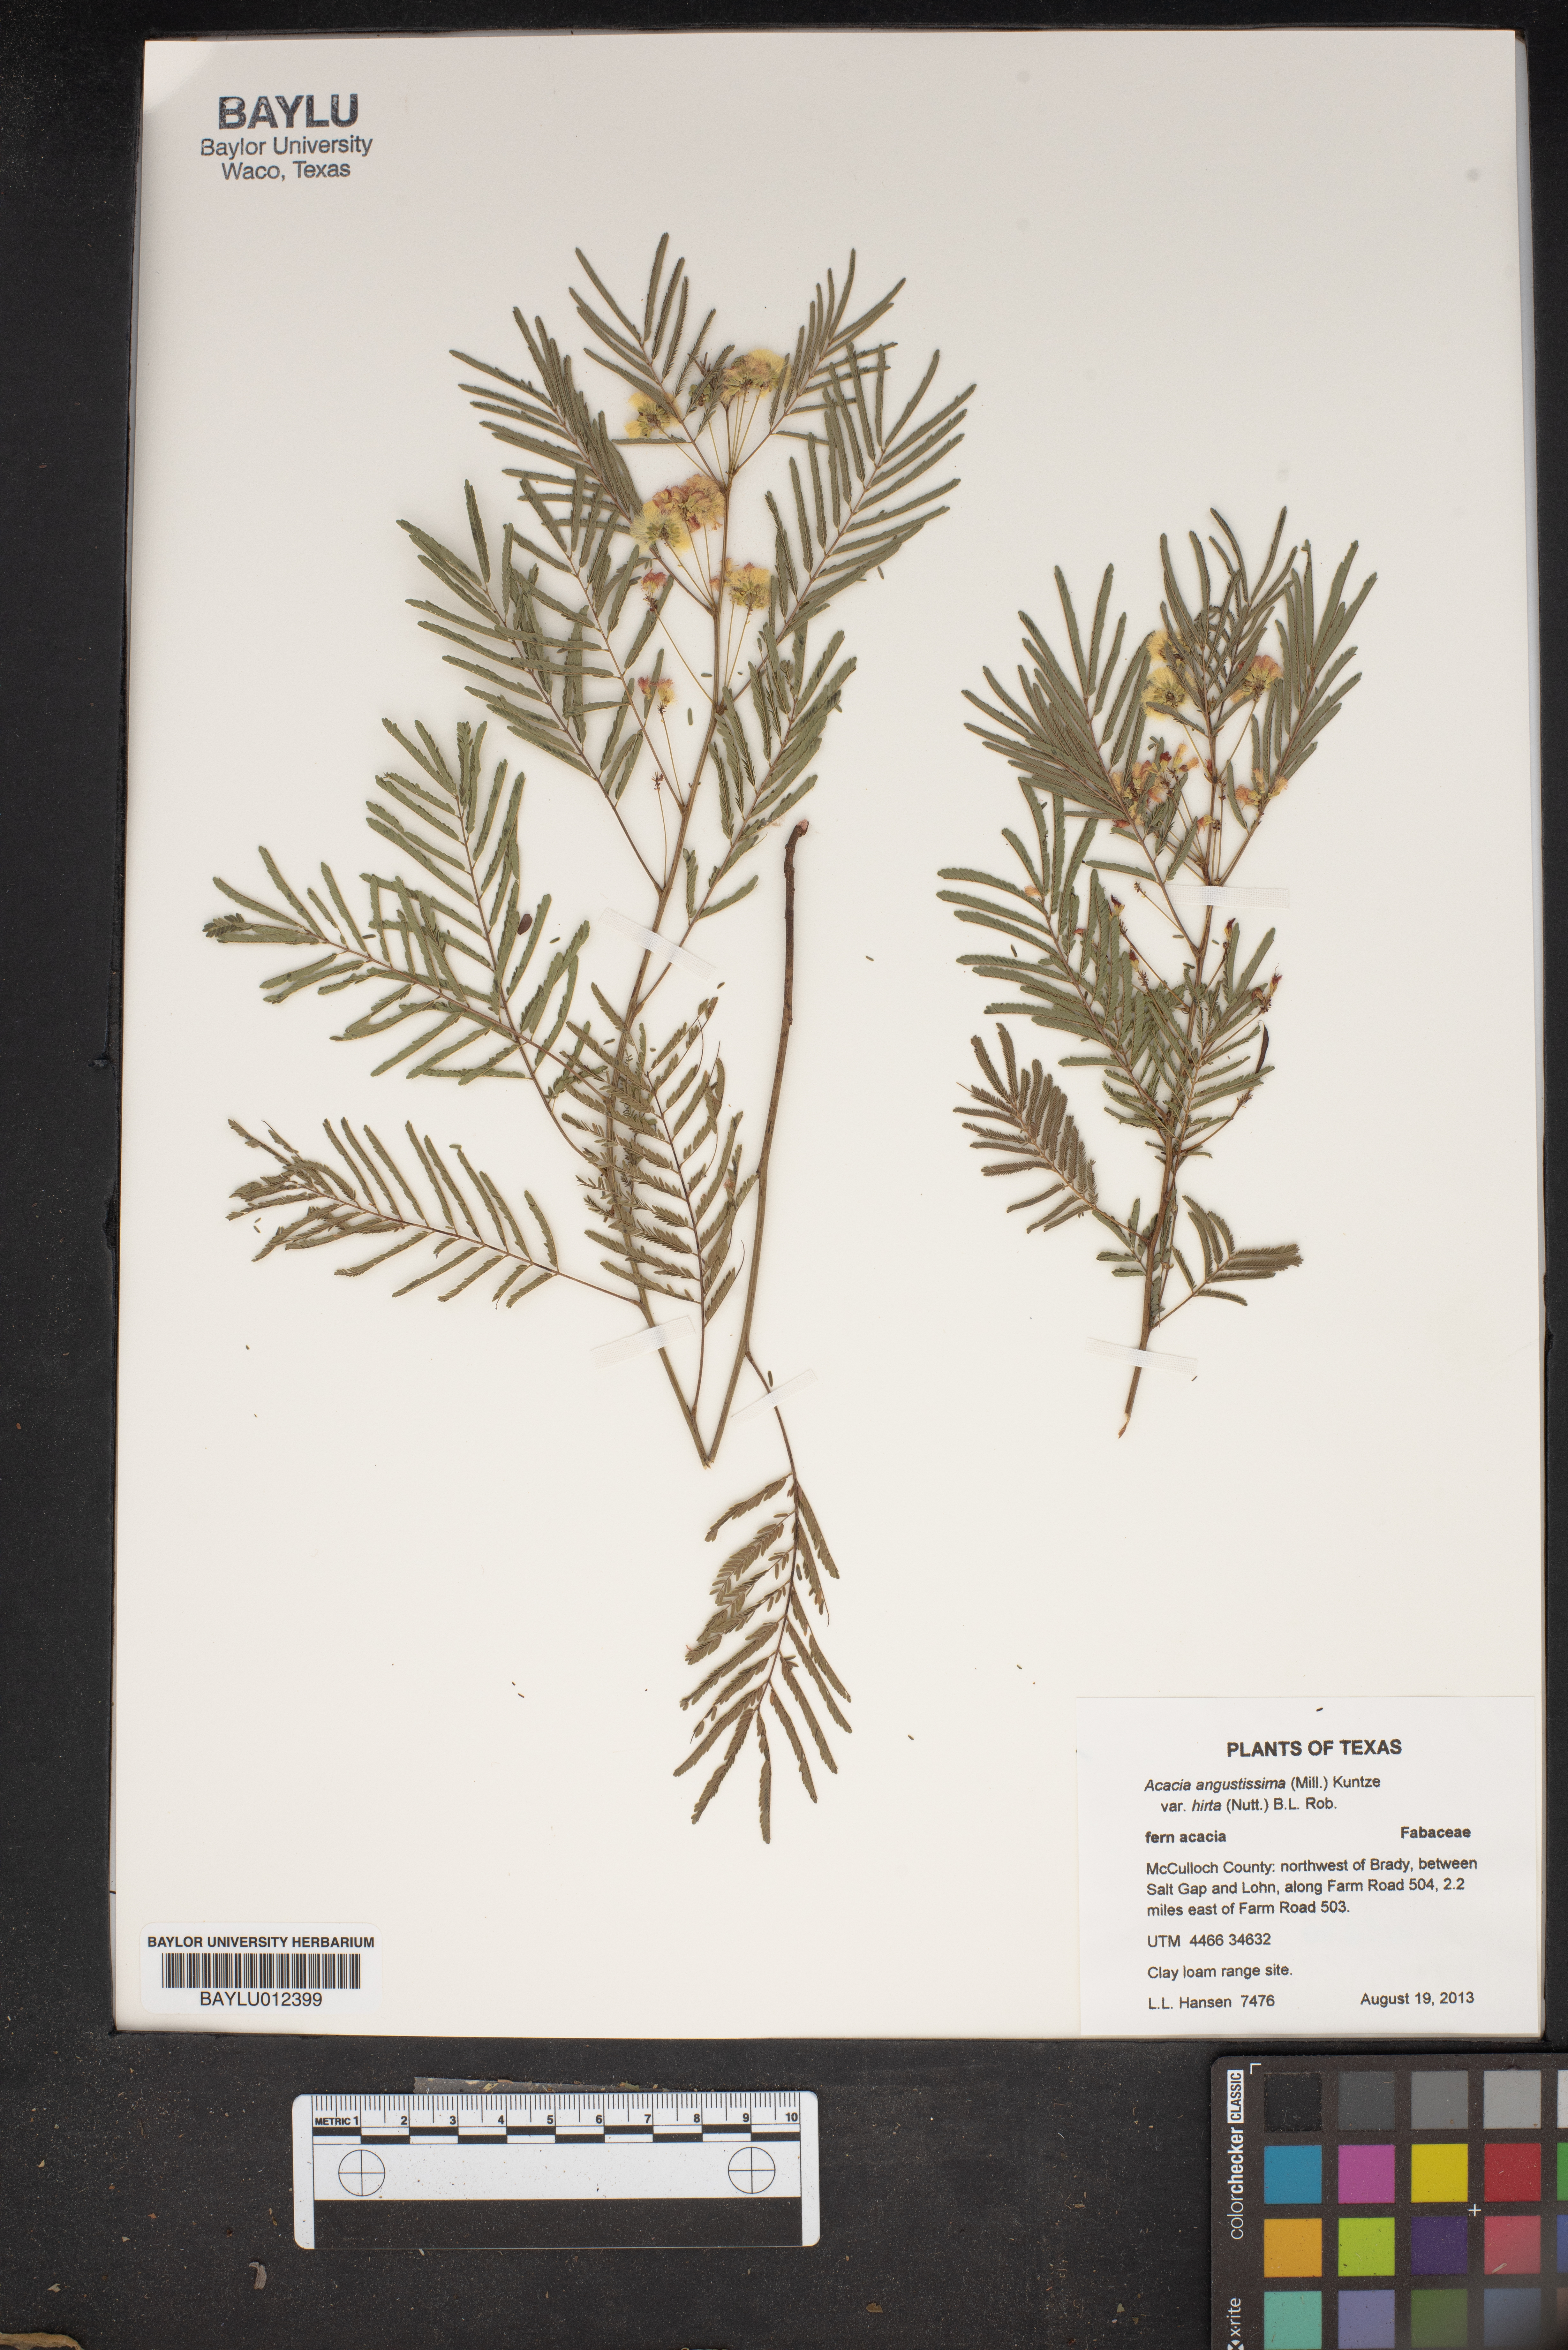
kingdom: Plantae
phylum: Tracheophyta
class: Magnoliopsida
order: Fabales
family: Fabaceae
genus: Acaciella
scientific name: Acaciella angustissima
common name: Prairie acacia
